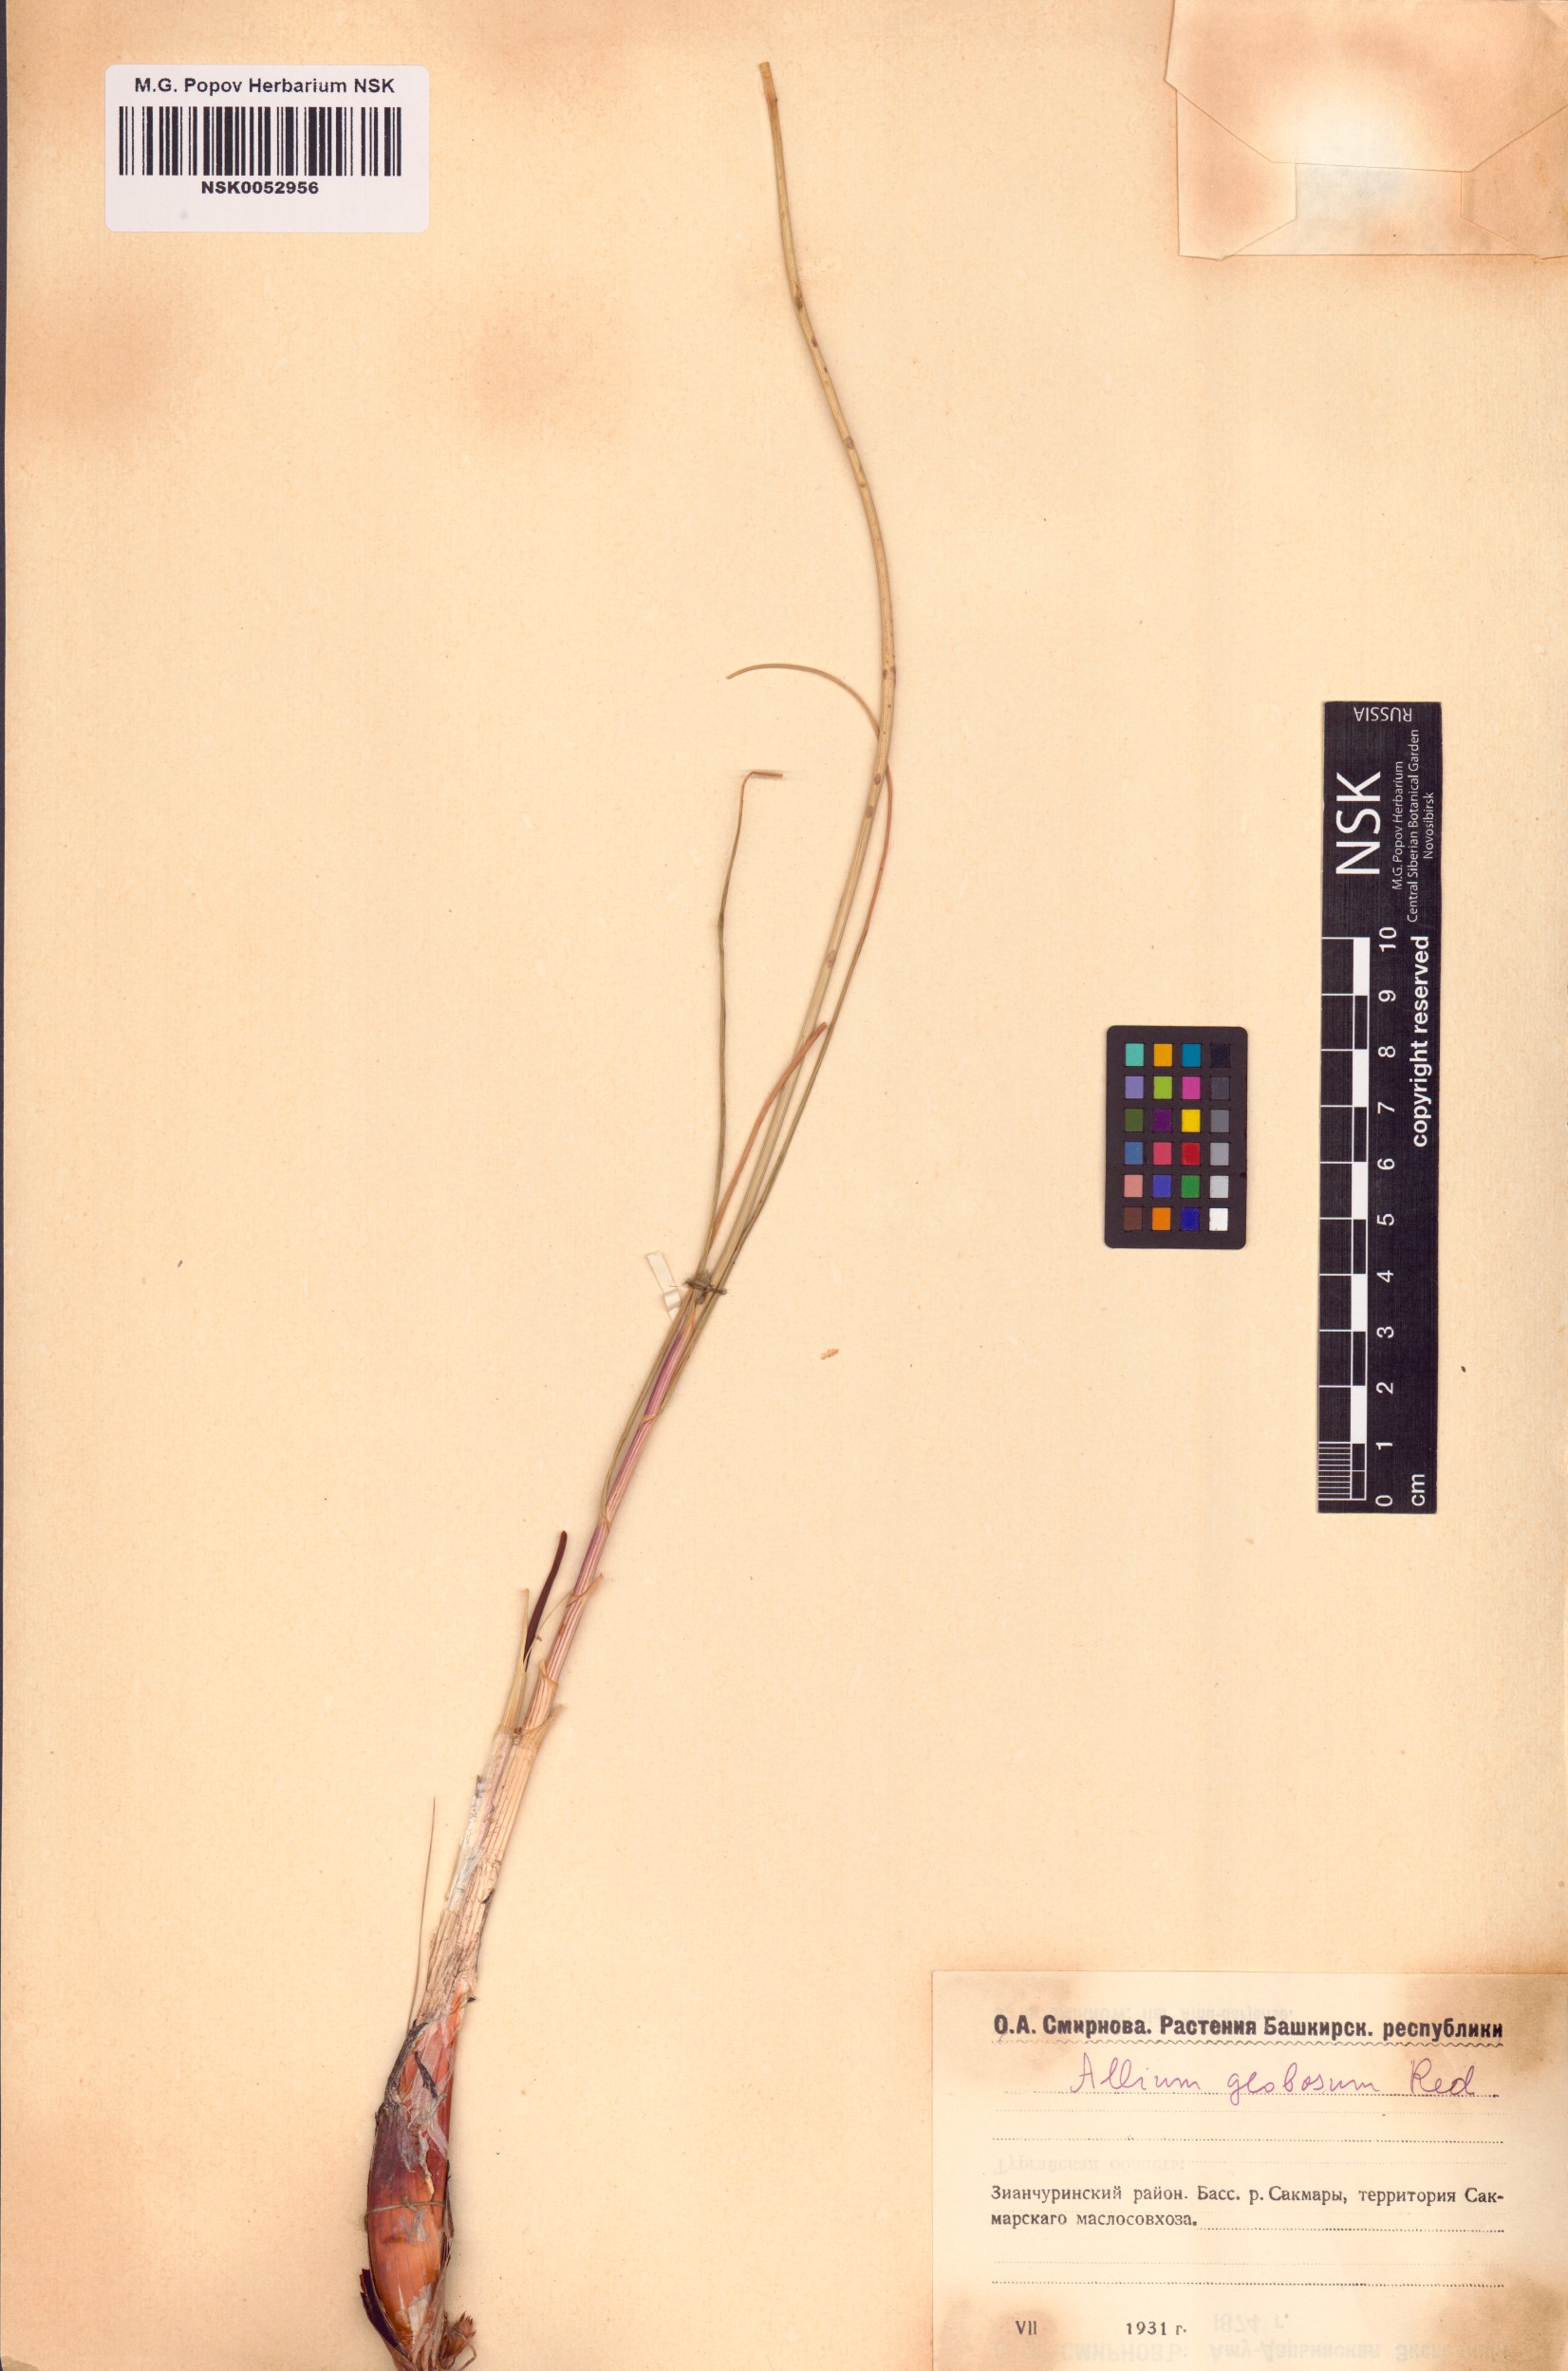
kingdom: Plantae
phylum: Tracheophyta
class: Liliopsida
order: Asparagales
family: Amaryllidaceae
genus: Allium
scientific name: Allium saxatile
